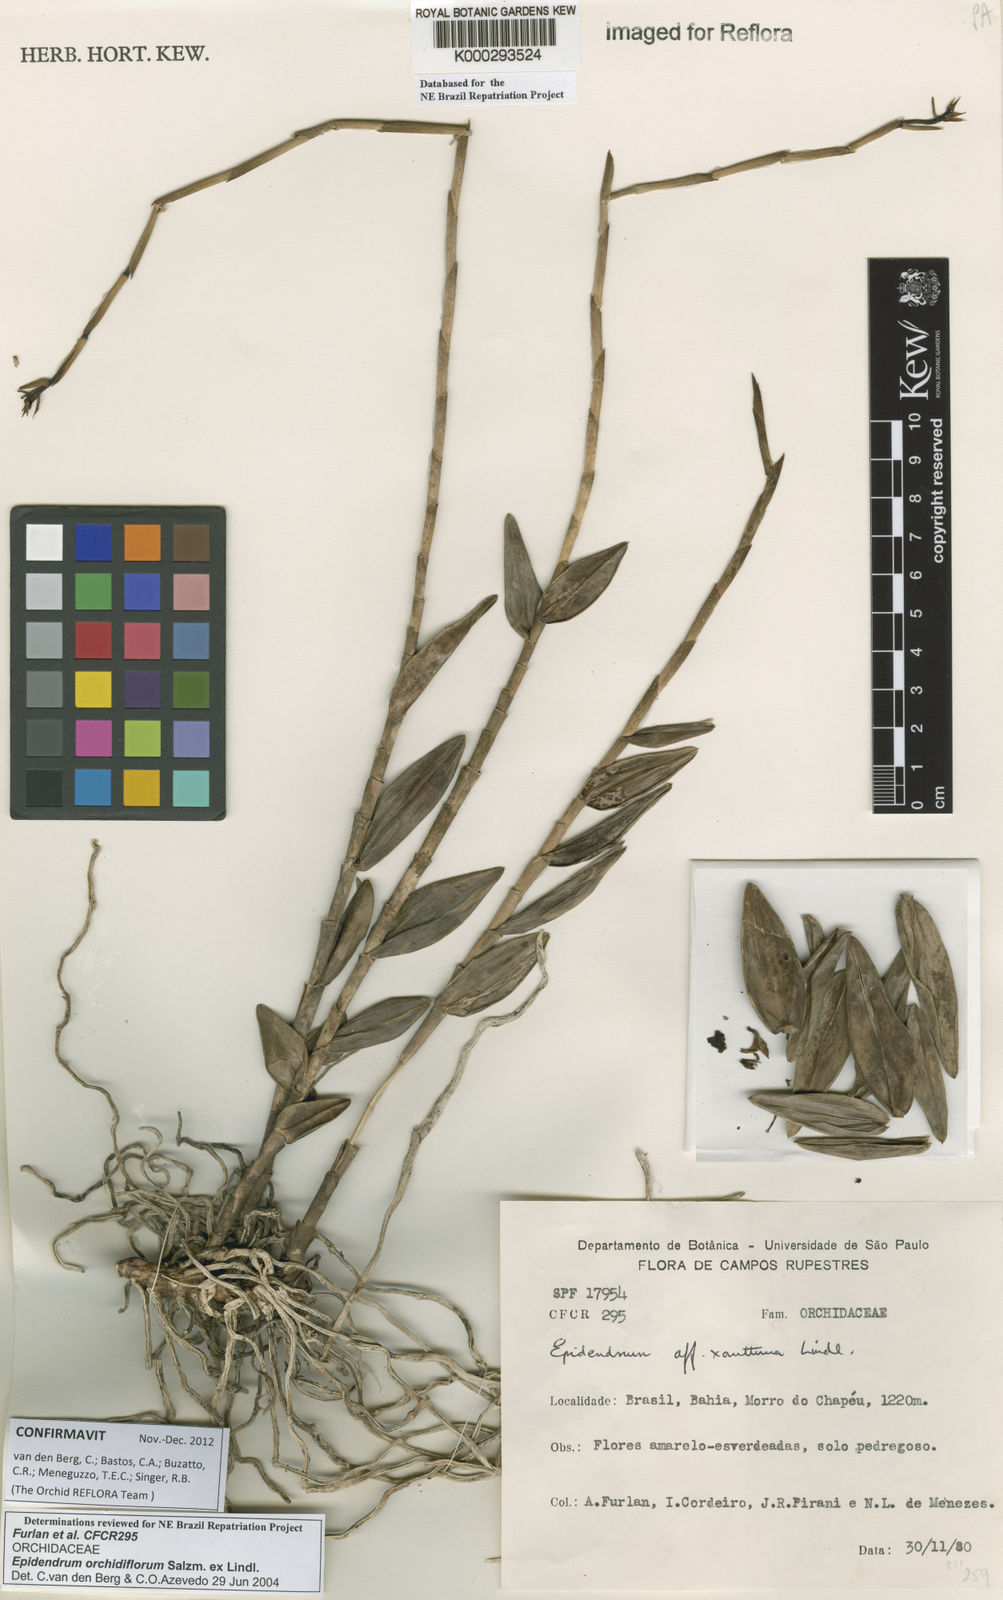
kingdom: Plantae
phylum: Tracheophyta
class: Liliopsida
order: Asparagales
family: Orchidaceae
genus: Epidendrum
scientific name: Epidendrum orchidiflorum
